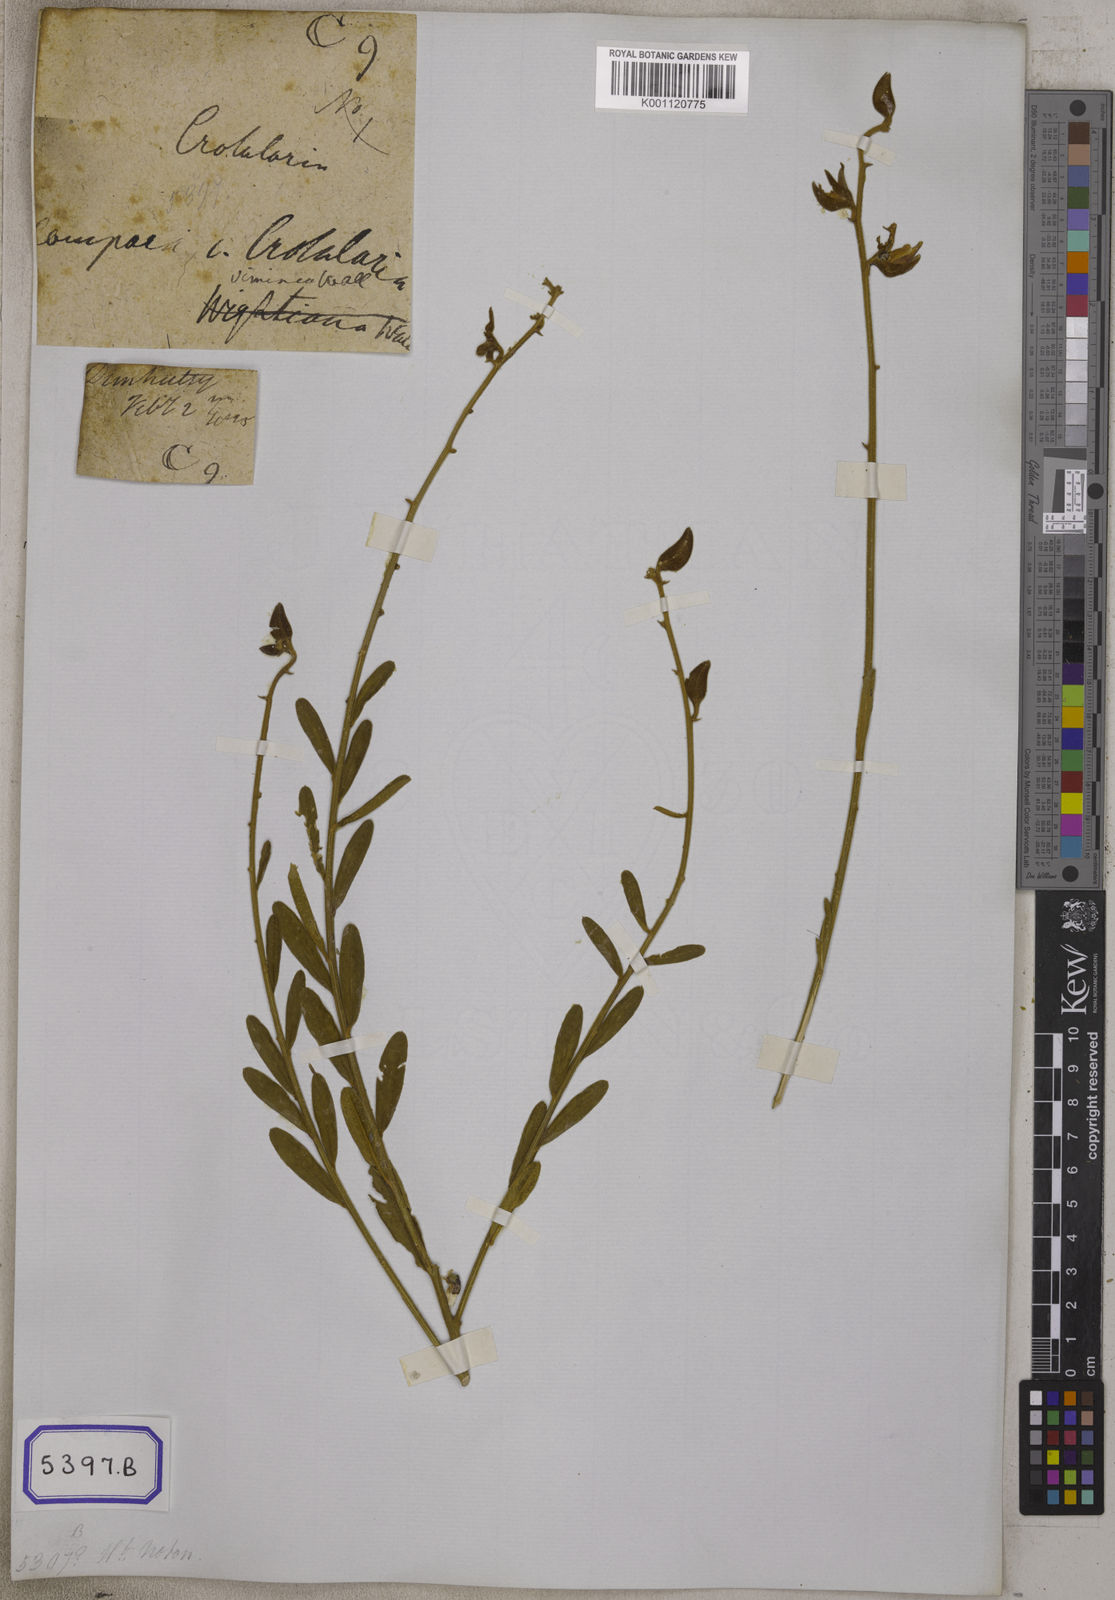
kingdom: Plantae
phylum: Tracheophyta
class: Magnoliopsida
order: Fabales
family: Fabaceae
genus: Crotalaria
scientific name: Crotalaria
